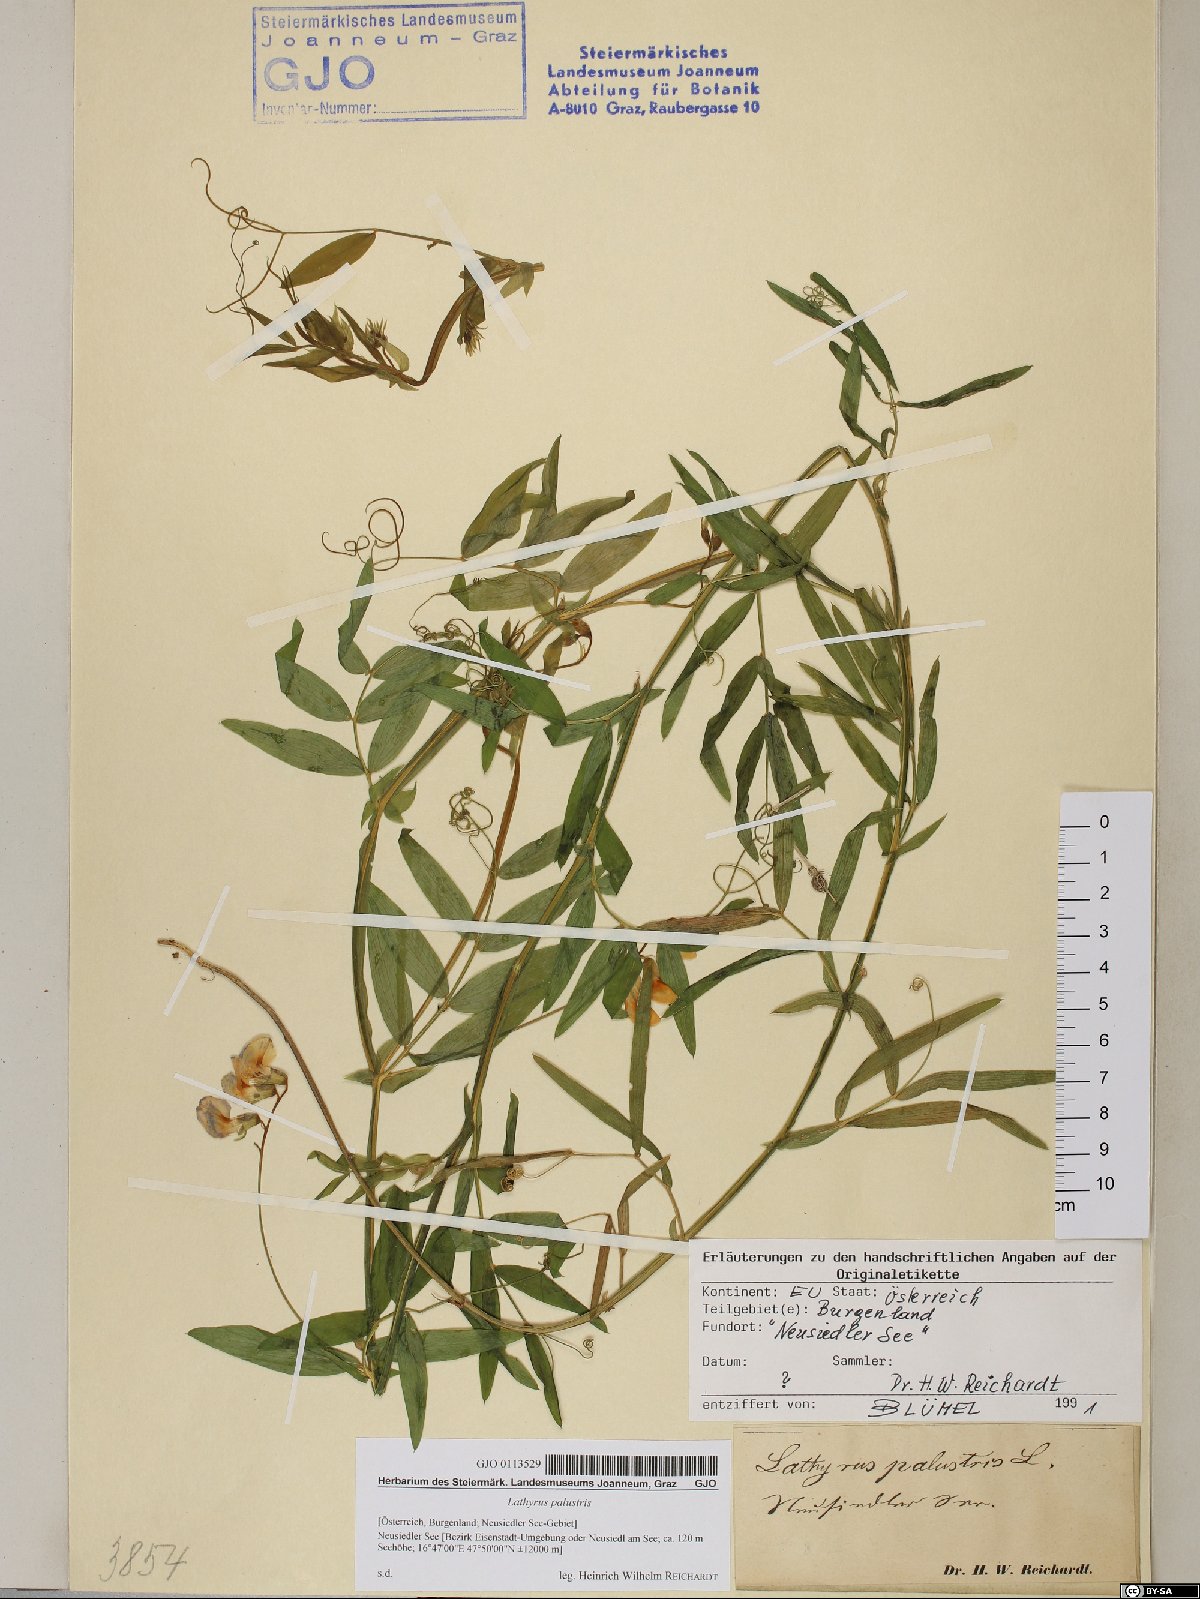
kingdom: Plantae
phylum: Tracheophyta
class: Magnoliopsida
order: Fabales
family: Fabaceae
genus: Lathyrus
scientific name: Lathyrus palustris
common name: Marsh pea
